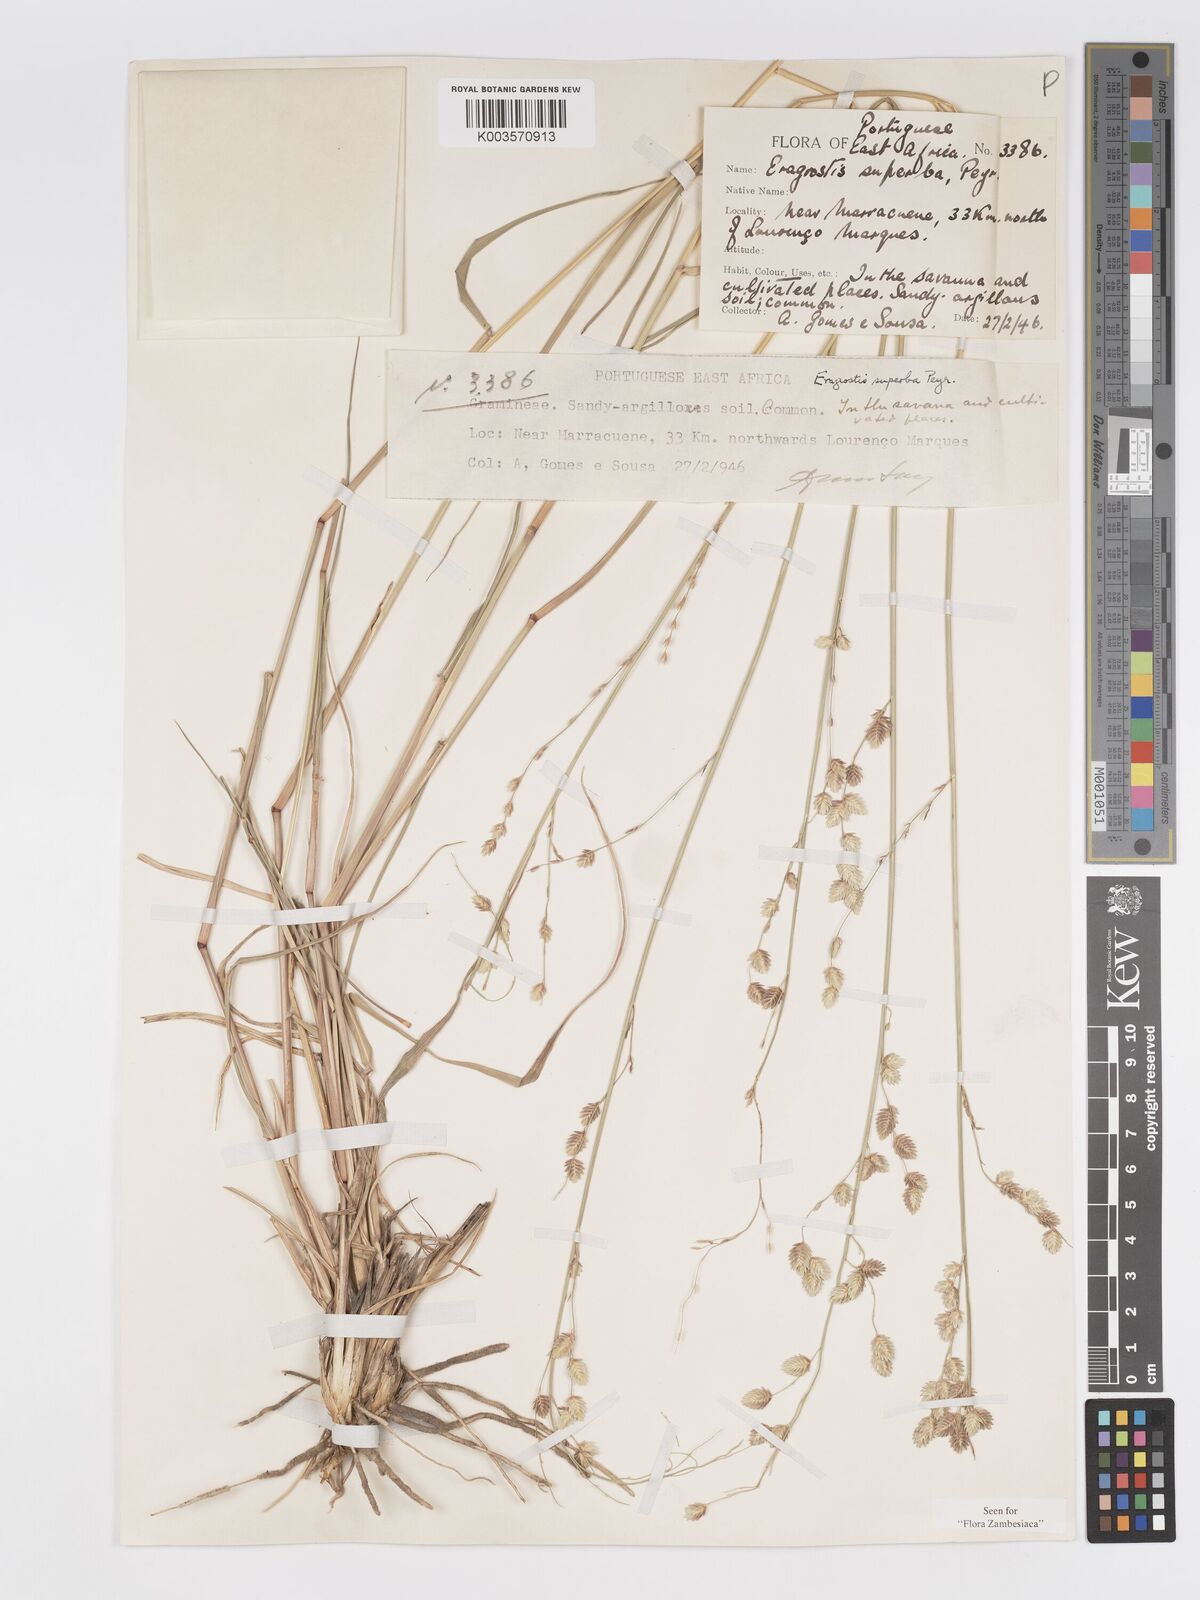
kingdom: Plantae
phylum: Tracheophyta
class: Liliopsida
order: Poales
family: Poaceae
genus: Eragrostis
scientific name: Eragrostis superba
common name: Wilman lovegrass
